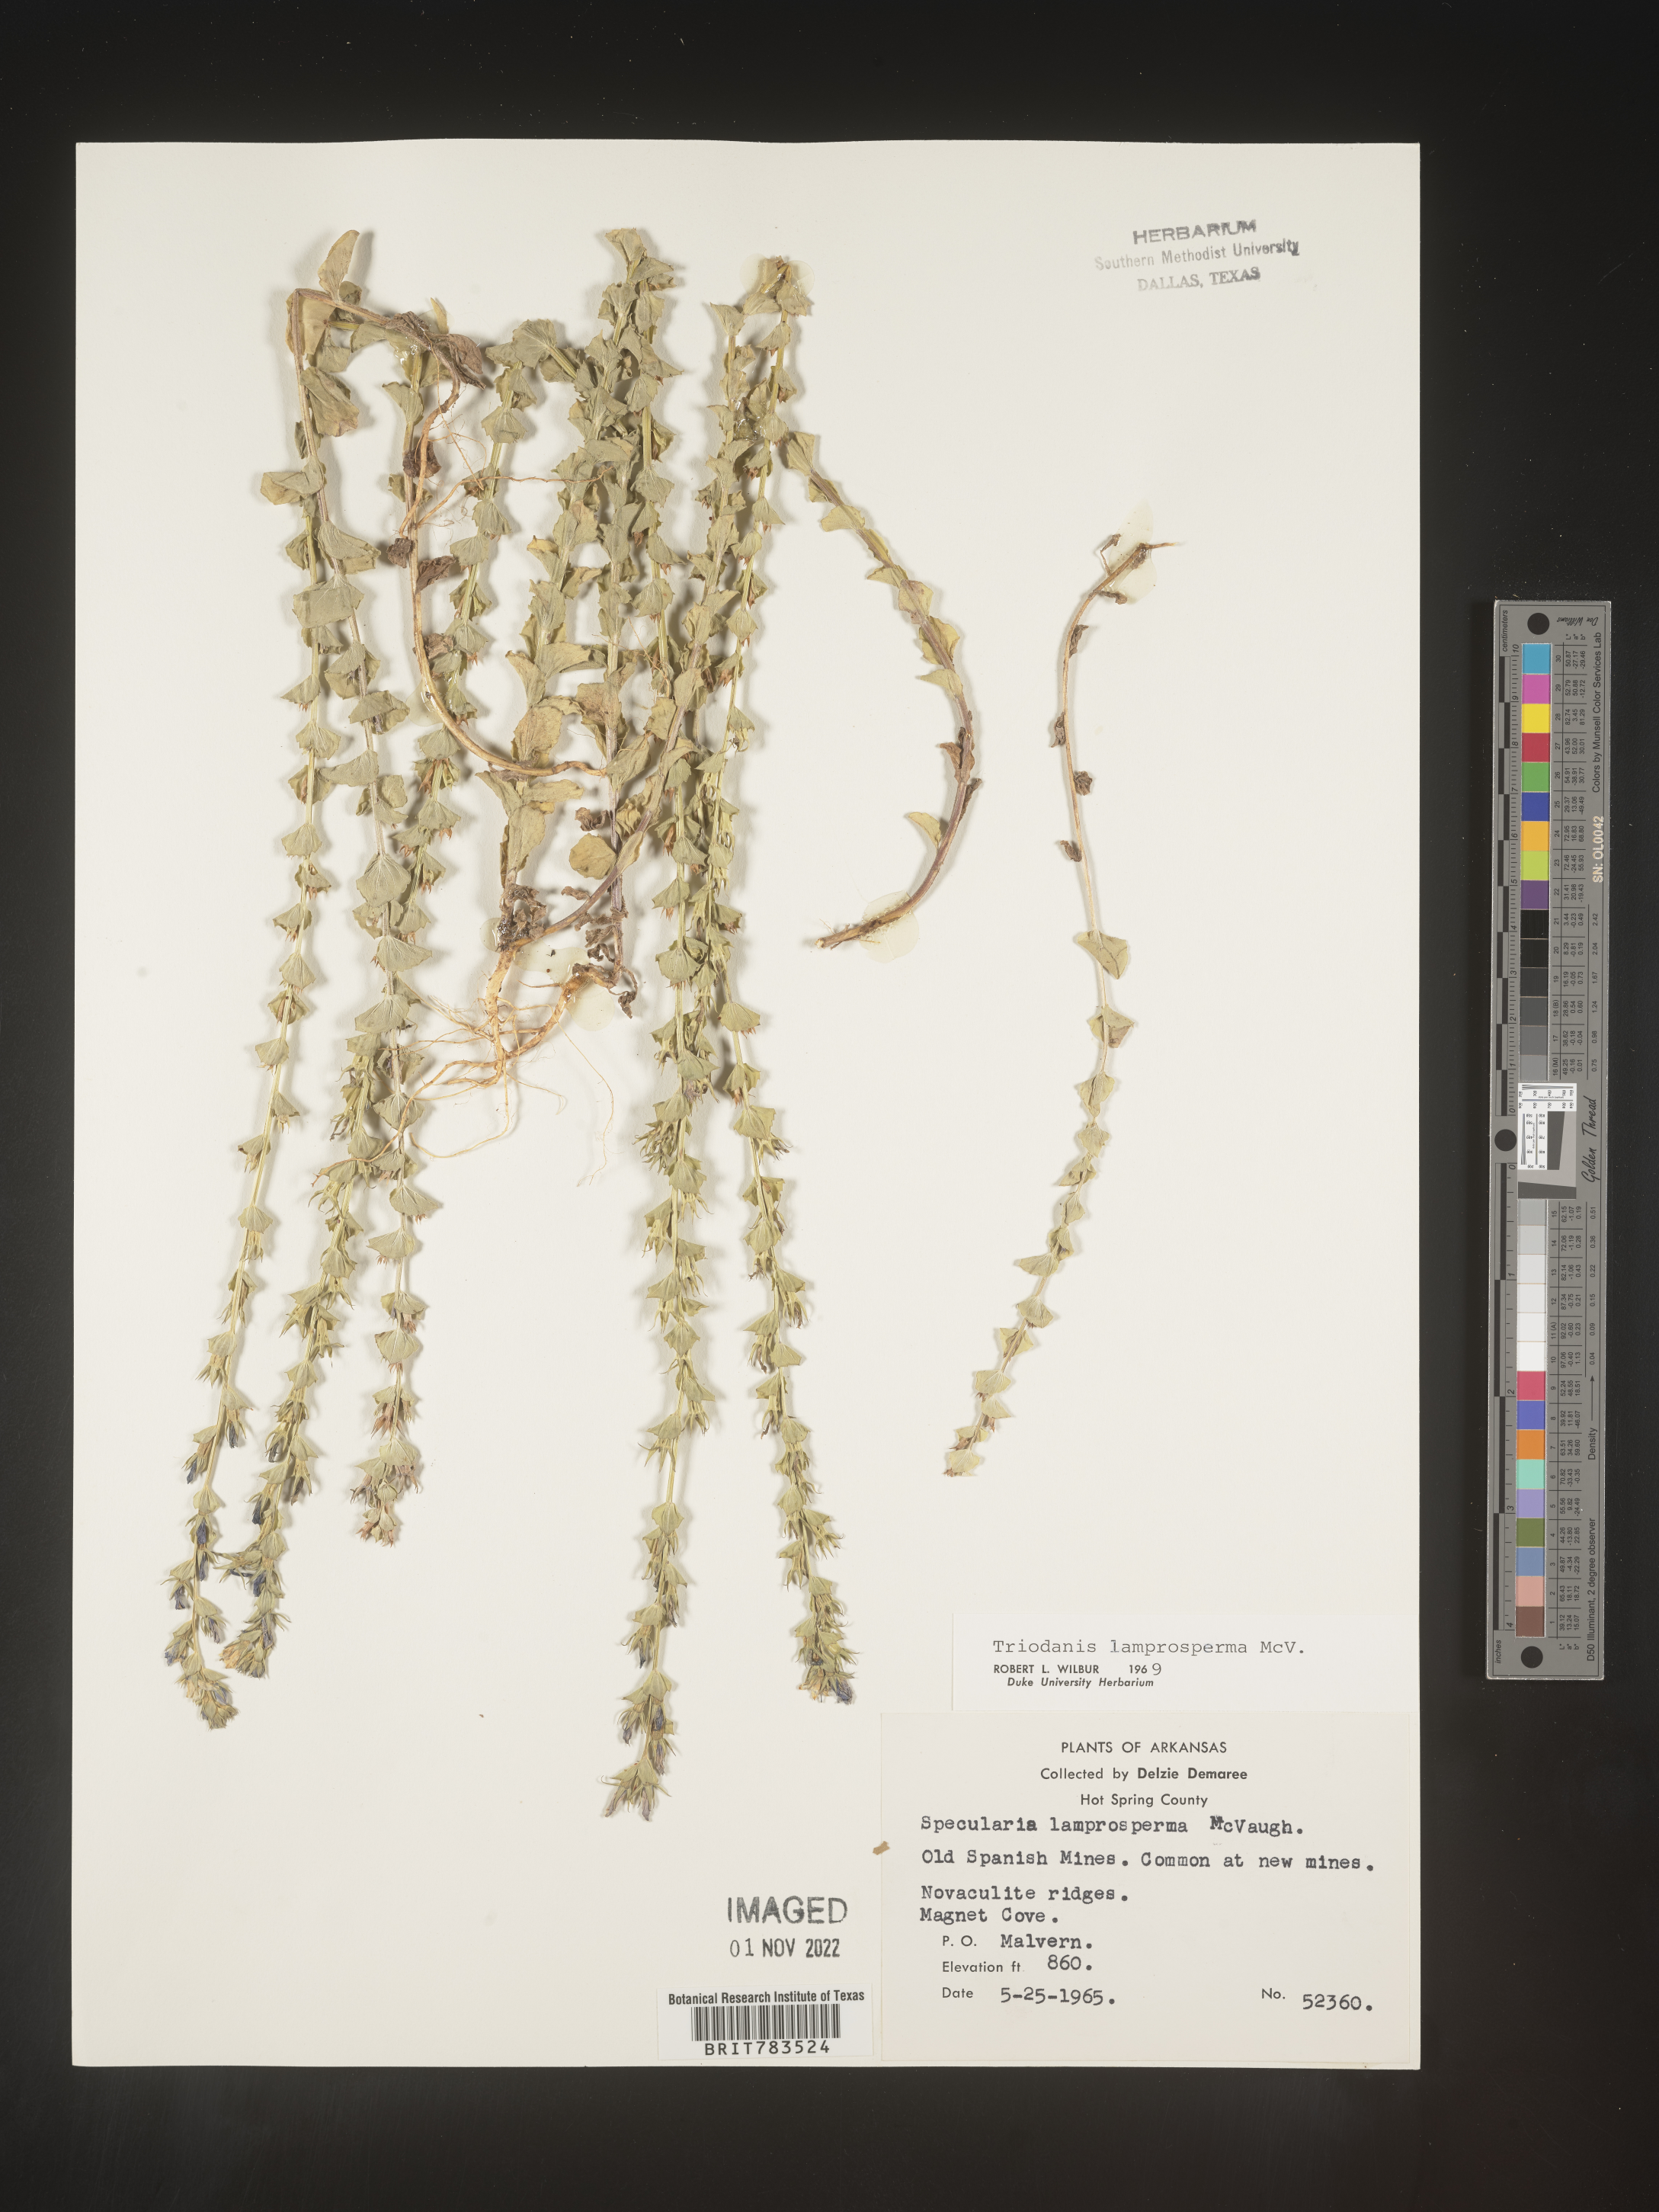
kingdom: Plantae
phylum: Tracheophyta
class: Magnoliopsida
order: Asterales
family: Campanulaceae
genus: Triodanis
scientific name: Triodanis lamprosperma
